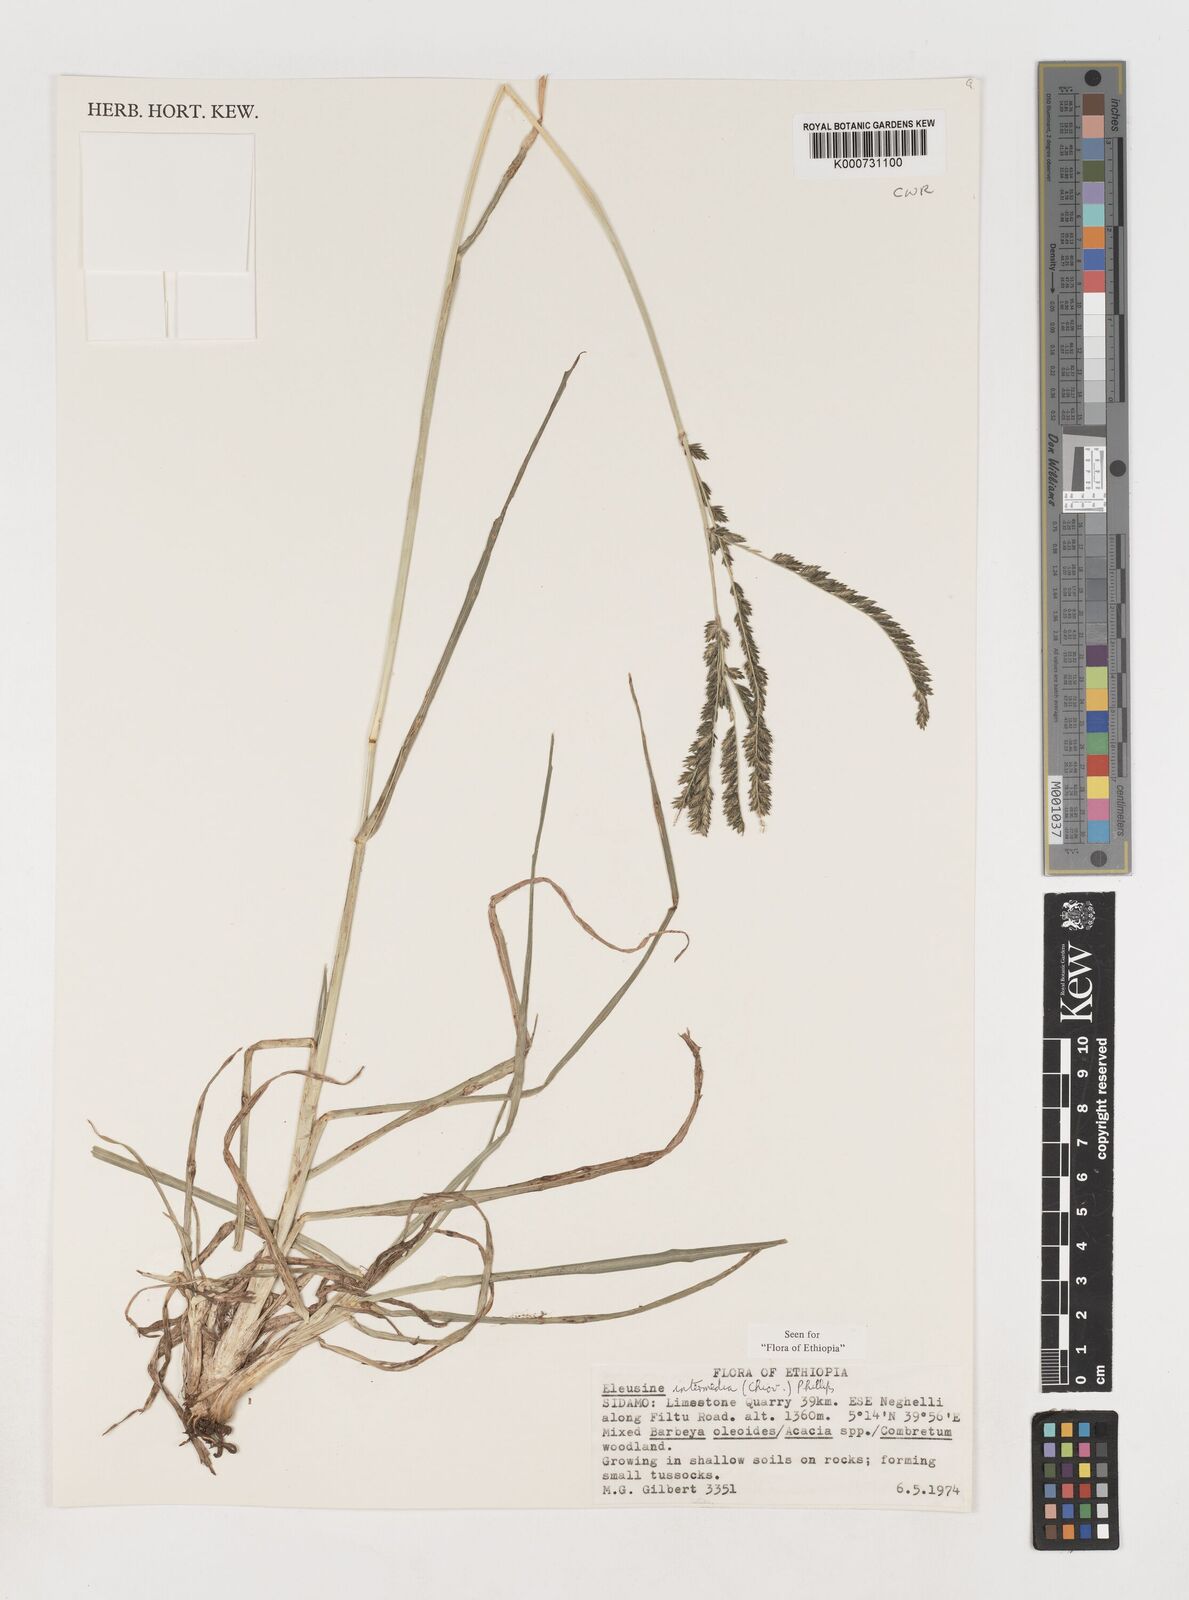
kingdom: Plantae
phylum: Tracheophyta
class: Liliopsida
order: Poales
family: Poaceae
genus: Eleusine
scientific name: Eleusine intermedia
